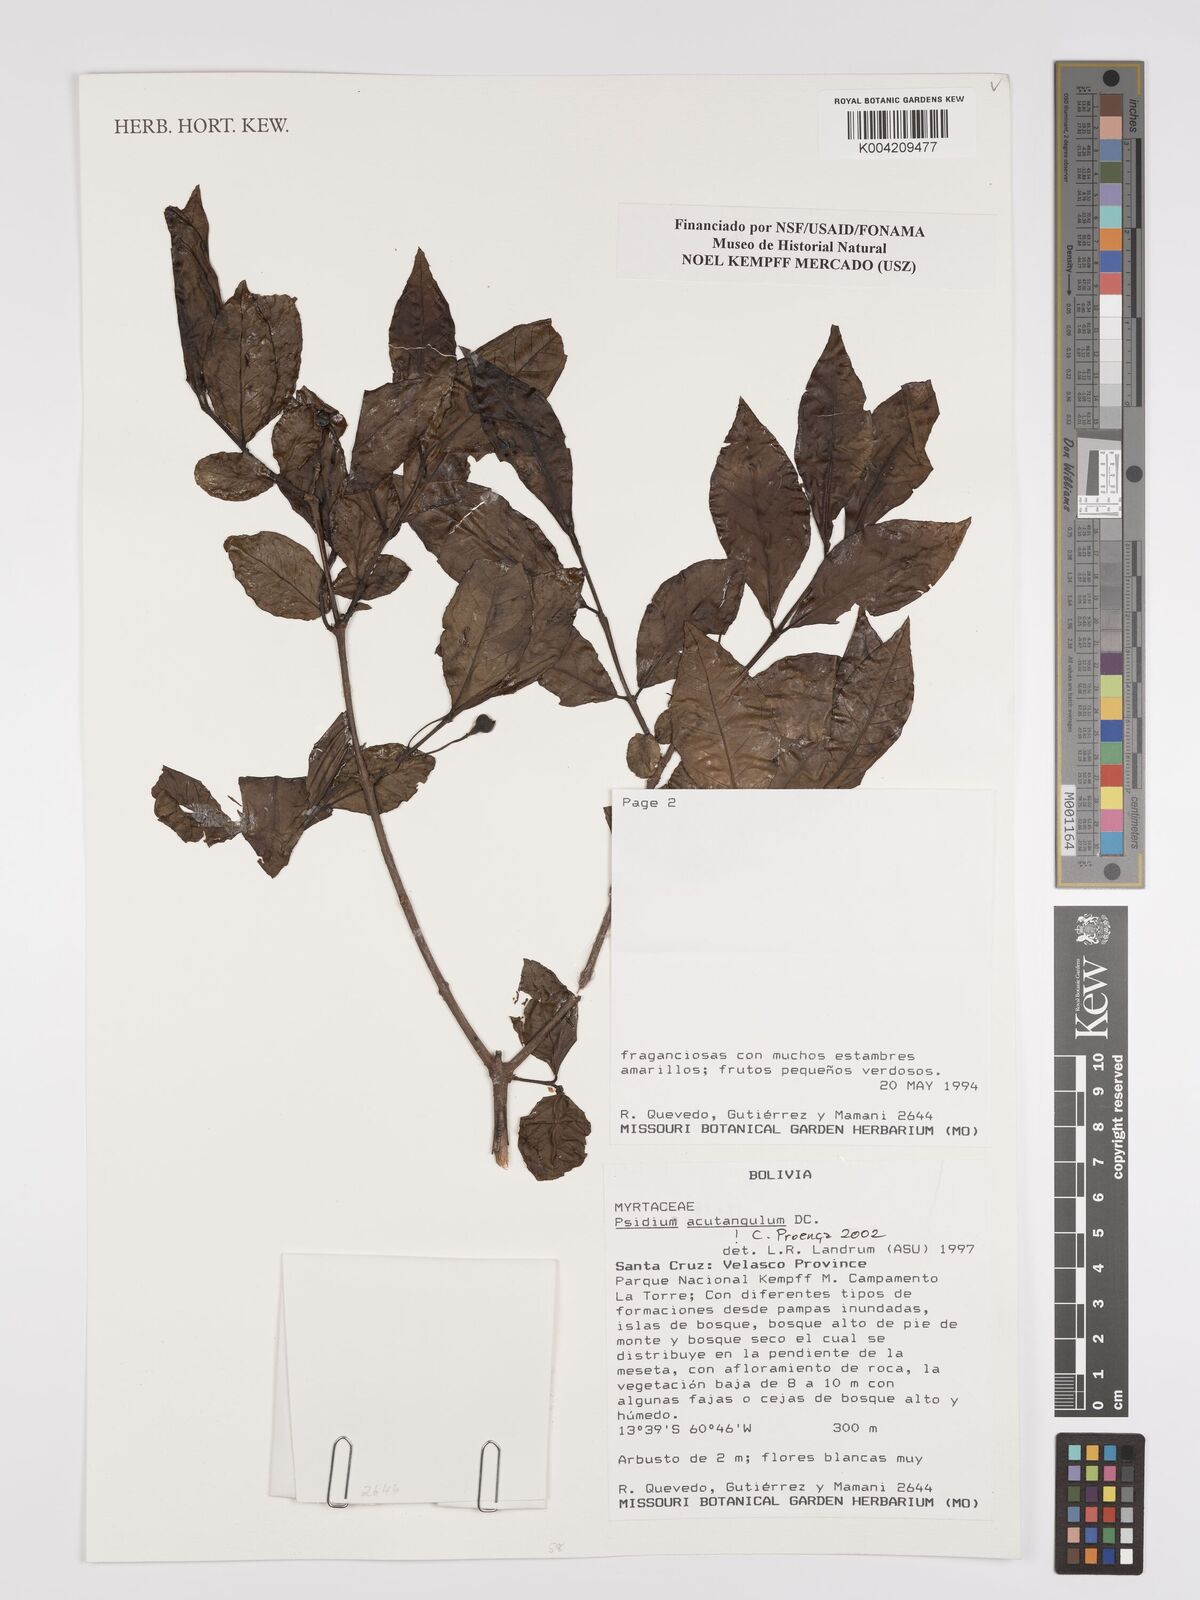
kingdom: Plantae
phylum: Tracheophyta
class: Magnoliopsida
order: Myrtales
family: Myrtaceae
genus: Psidium
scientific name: Psidium acutangulum
